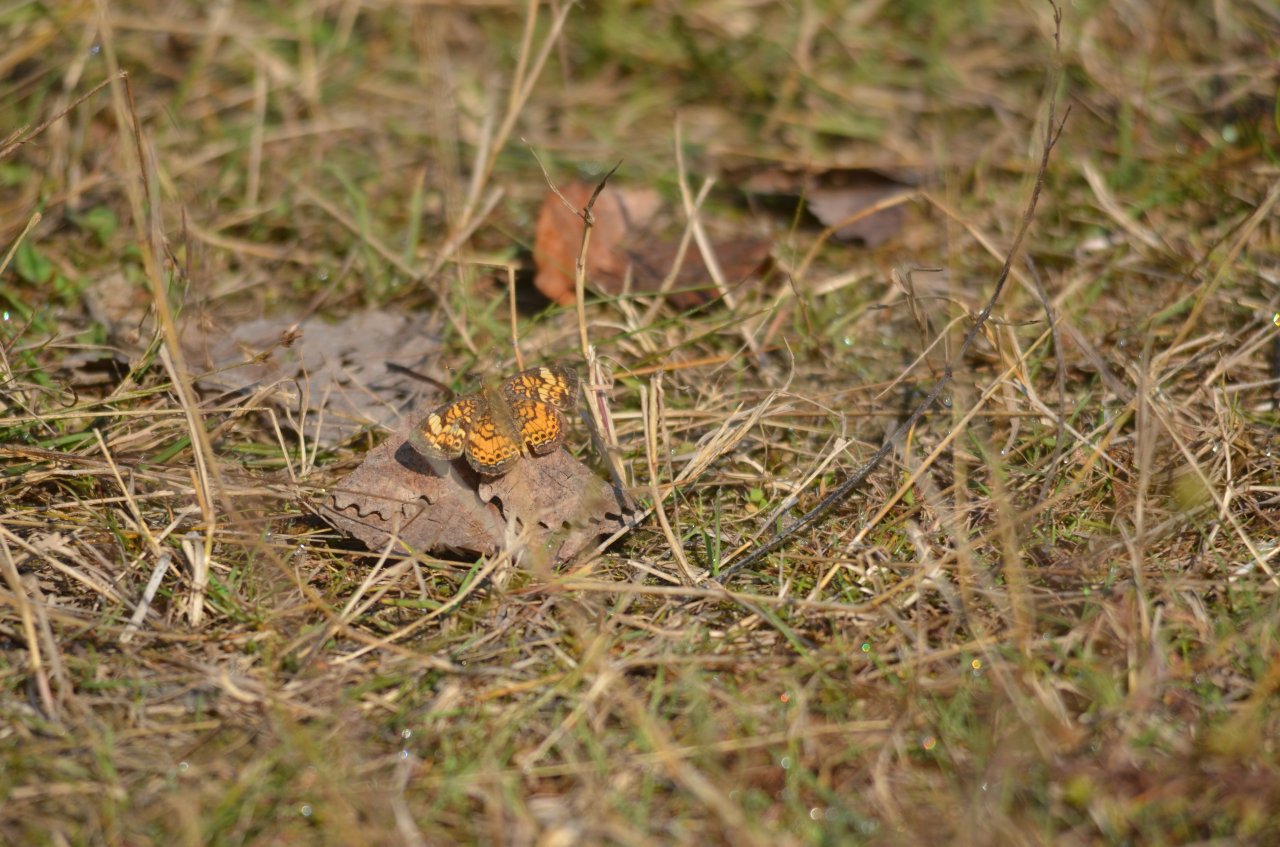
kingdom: Animalia
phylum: Arthropoda
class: Insecta
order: Lepidoptera
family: Nymphalidae
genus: Phyciodes
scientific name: Phyciodes tharos
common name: Northern Crescent
